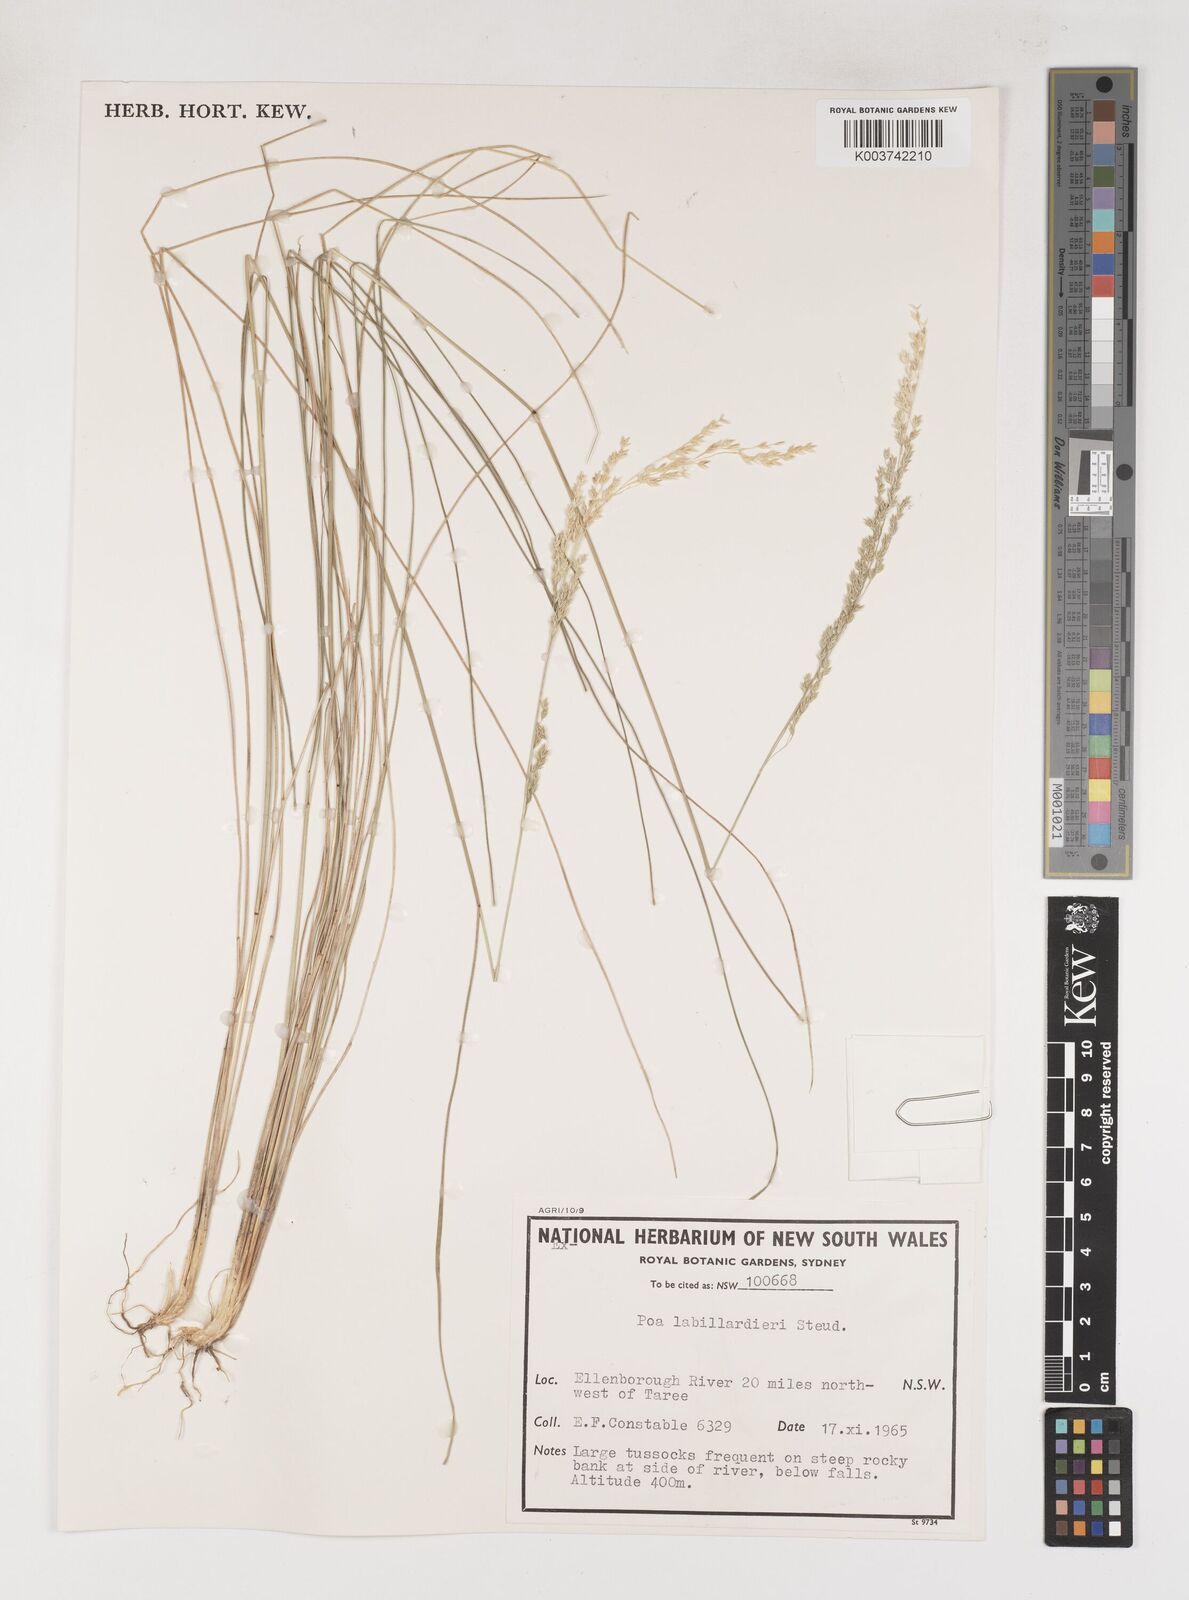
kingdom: Plantae
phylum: Tracheophyta
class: Liliopsida
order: Poales
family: Poaceae
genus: Poa
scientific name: Poa labillardierei
